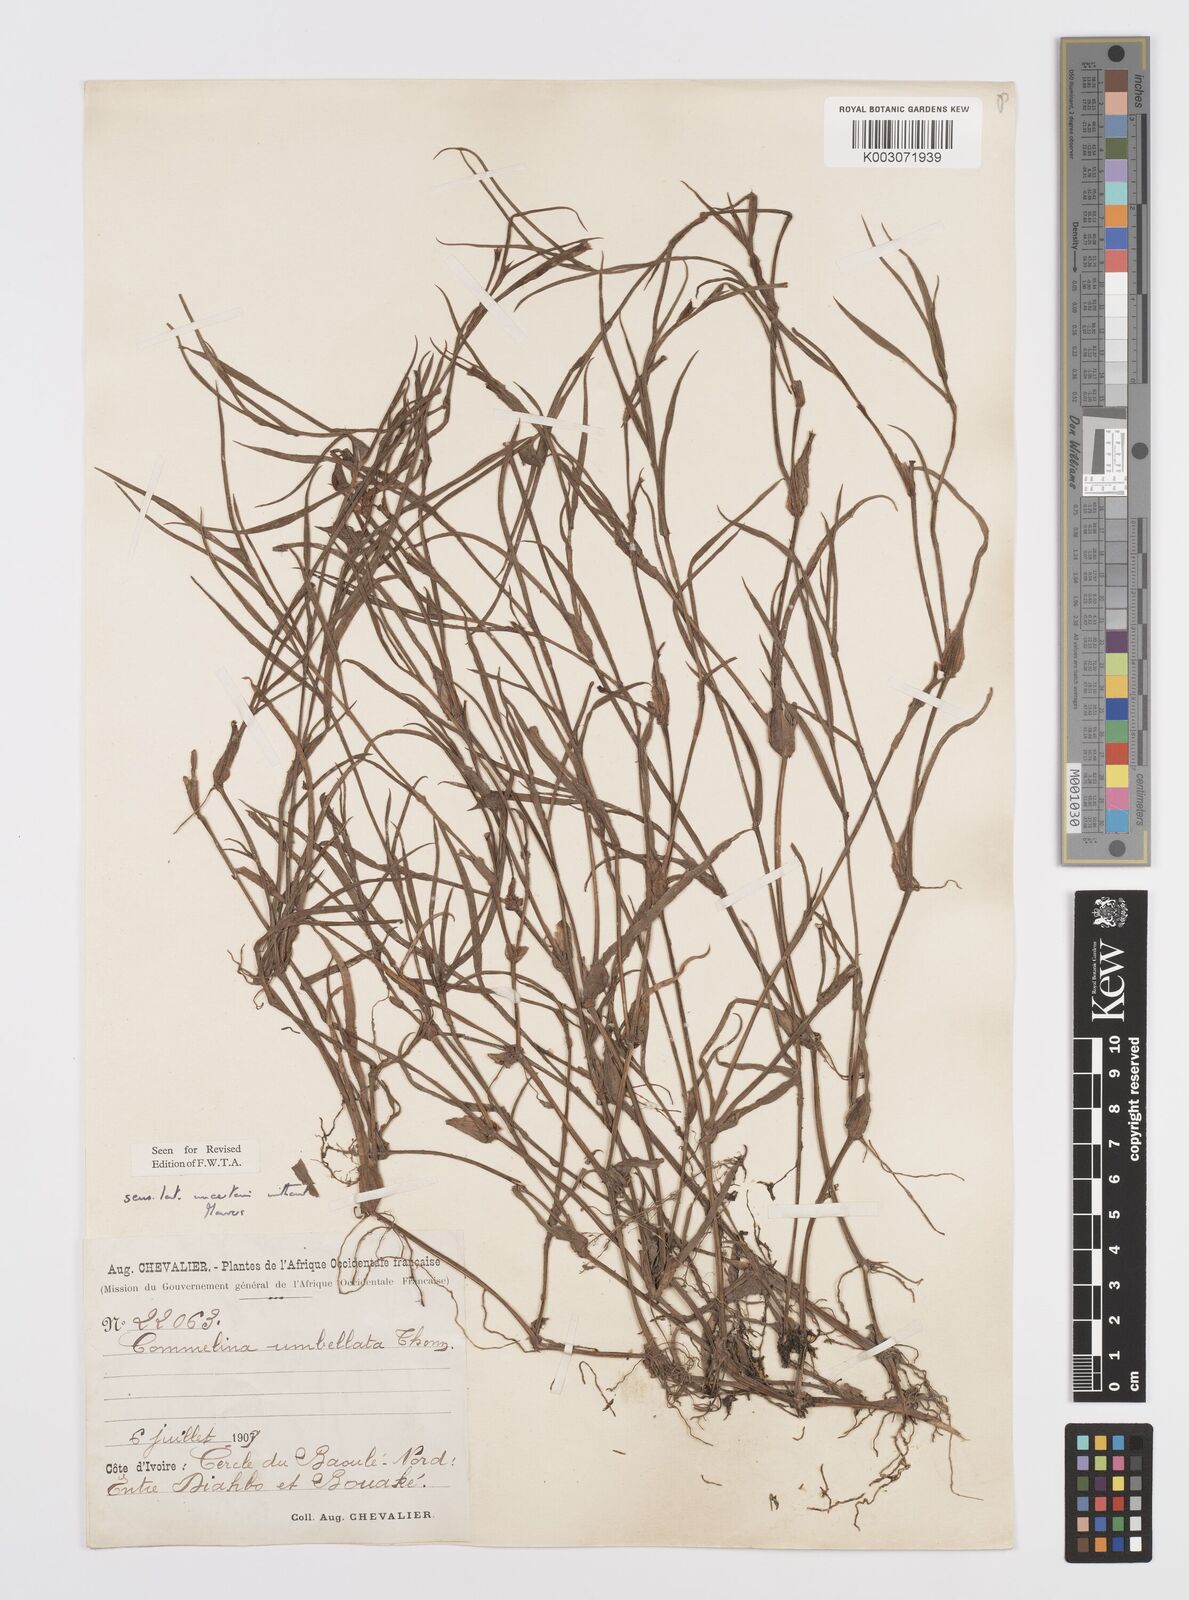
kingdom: Plantae
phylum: Tracheophyta
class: Liliopsida
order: Commelinales
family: Commelinaceae
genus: Commelina
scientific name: Commelina
